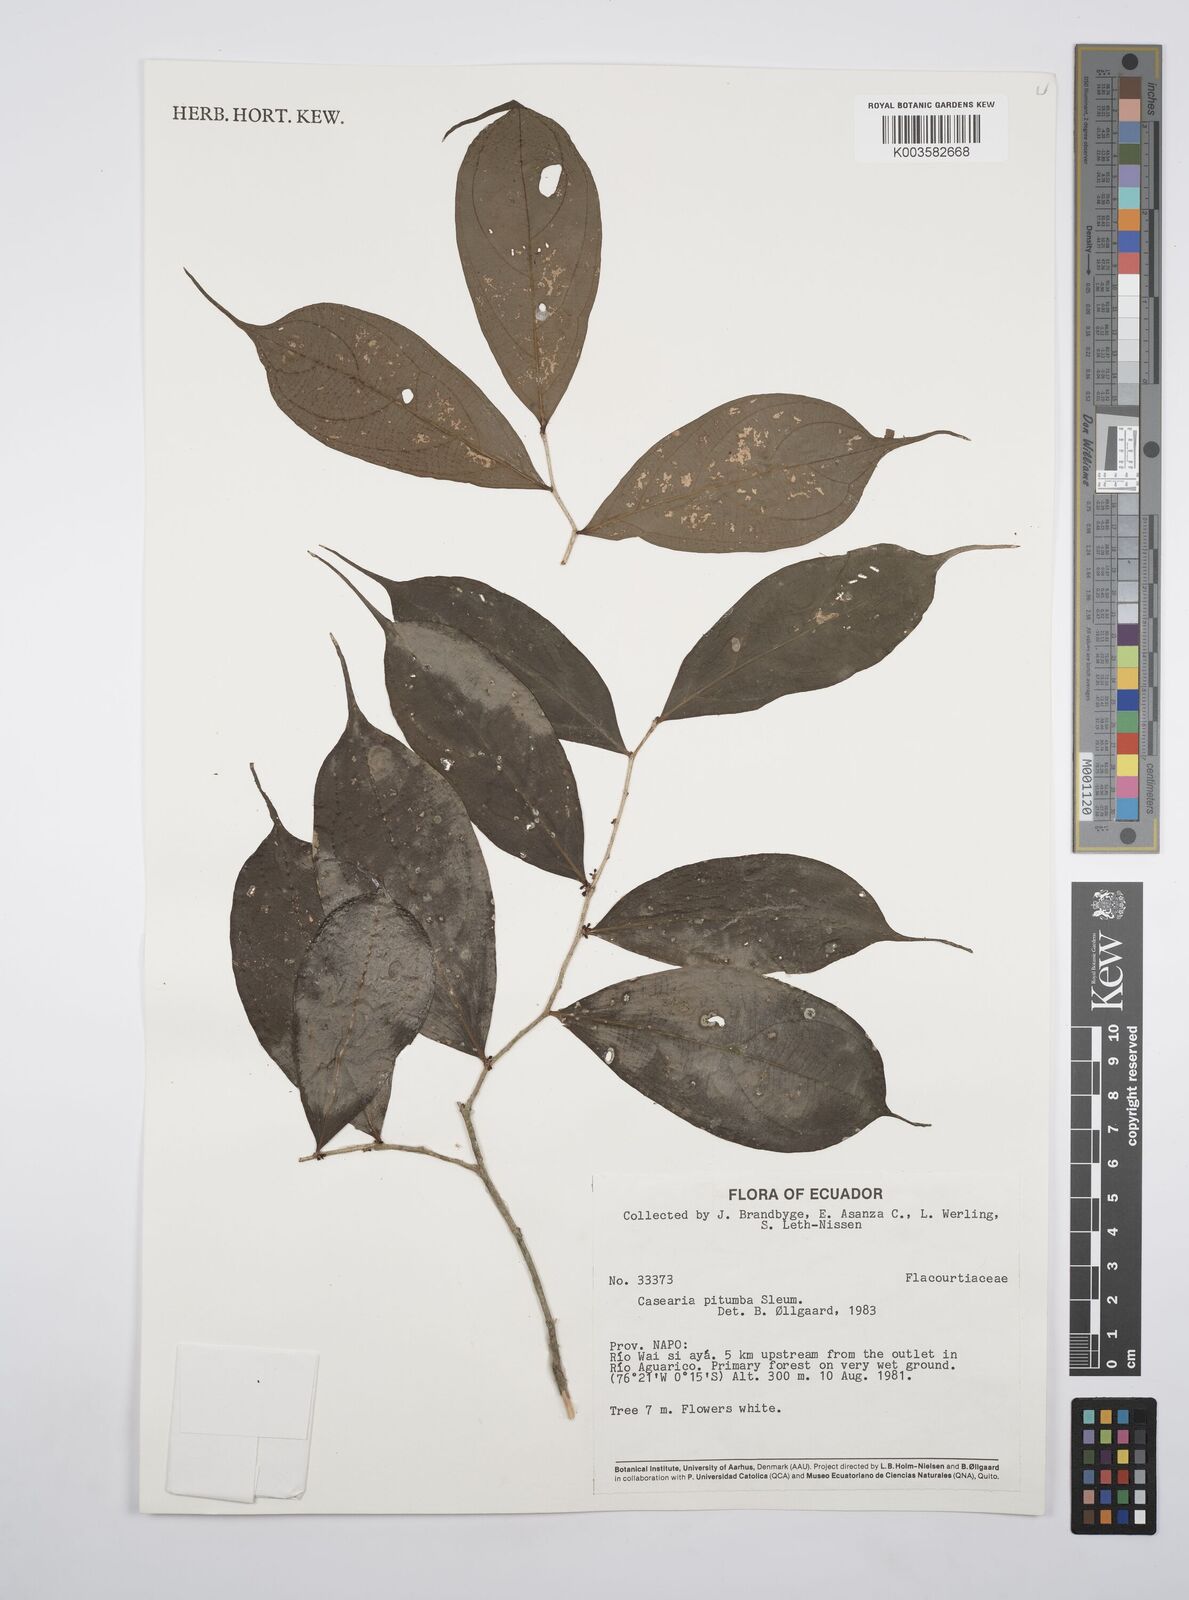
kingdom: Plantae
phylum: Tracheophyta
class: Magnoliopsida
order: Malpighiales
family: Salicaceae
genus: Casearia
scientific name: Casearia pitumba
